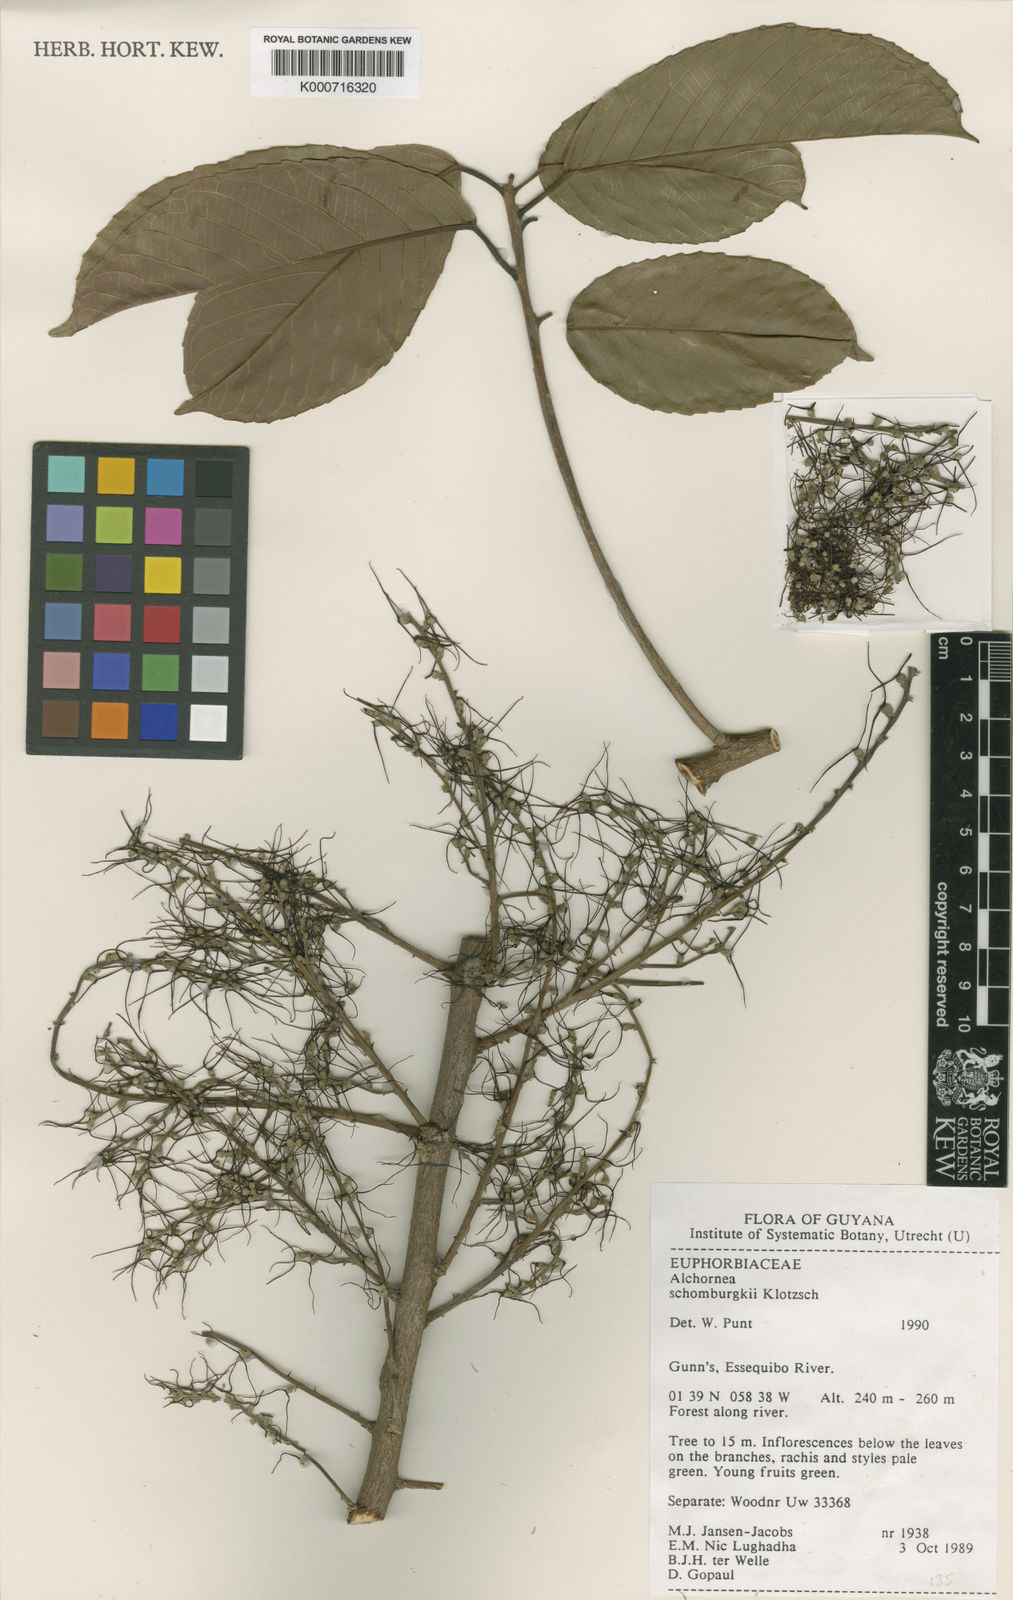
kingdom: Plantae
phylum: Tracheophyta
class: Magnoliopsida
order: Malpighiales
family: Euphorbiaceae
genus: Alchornea
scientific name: Alchornea discolor
